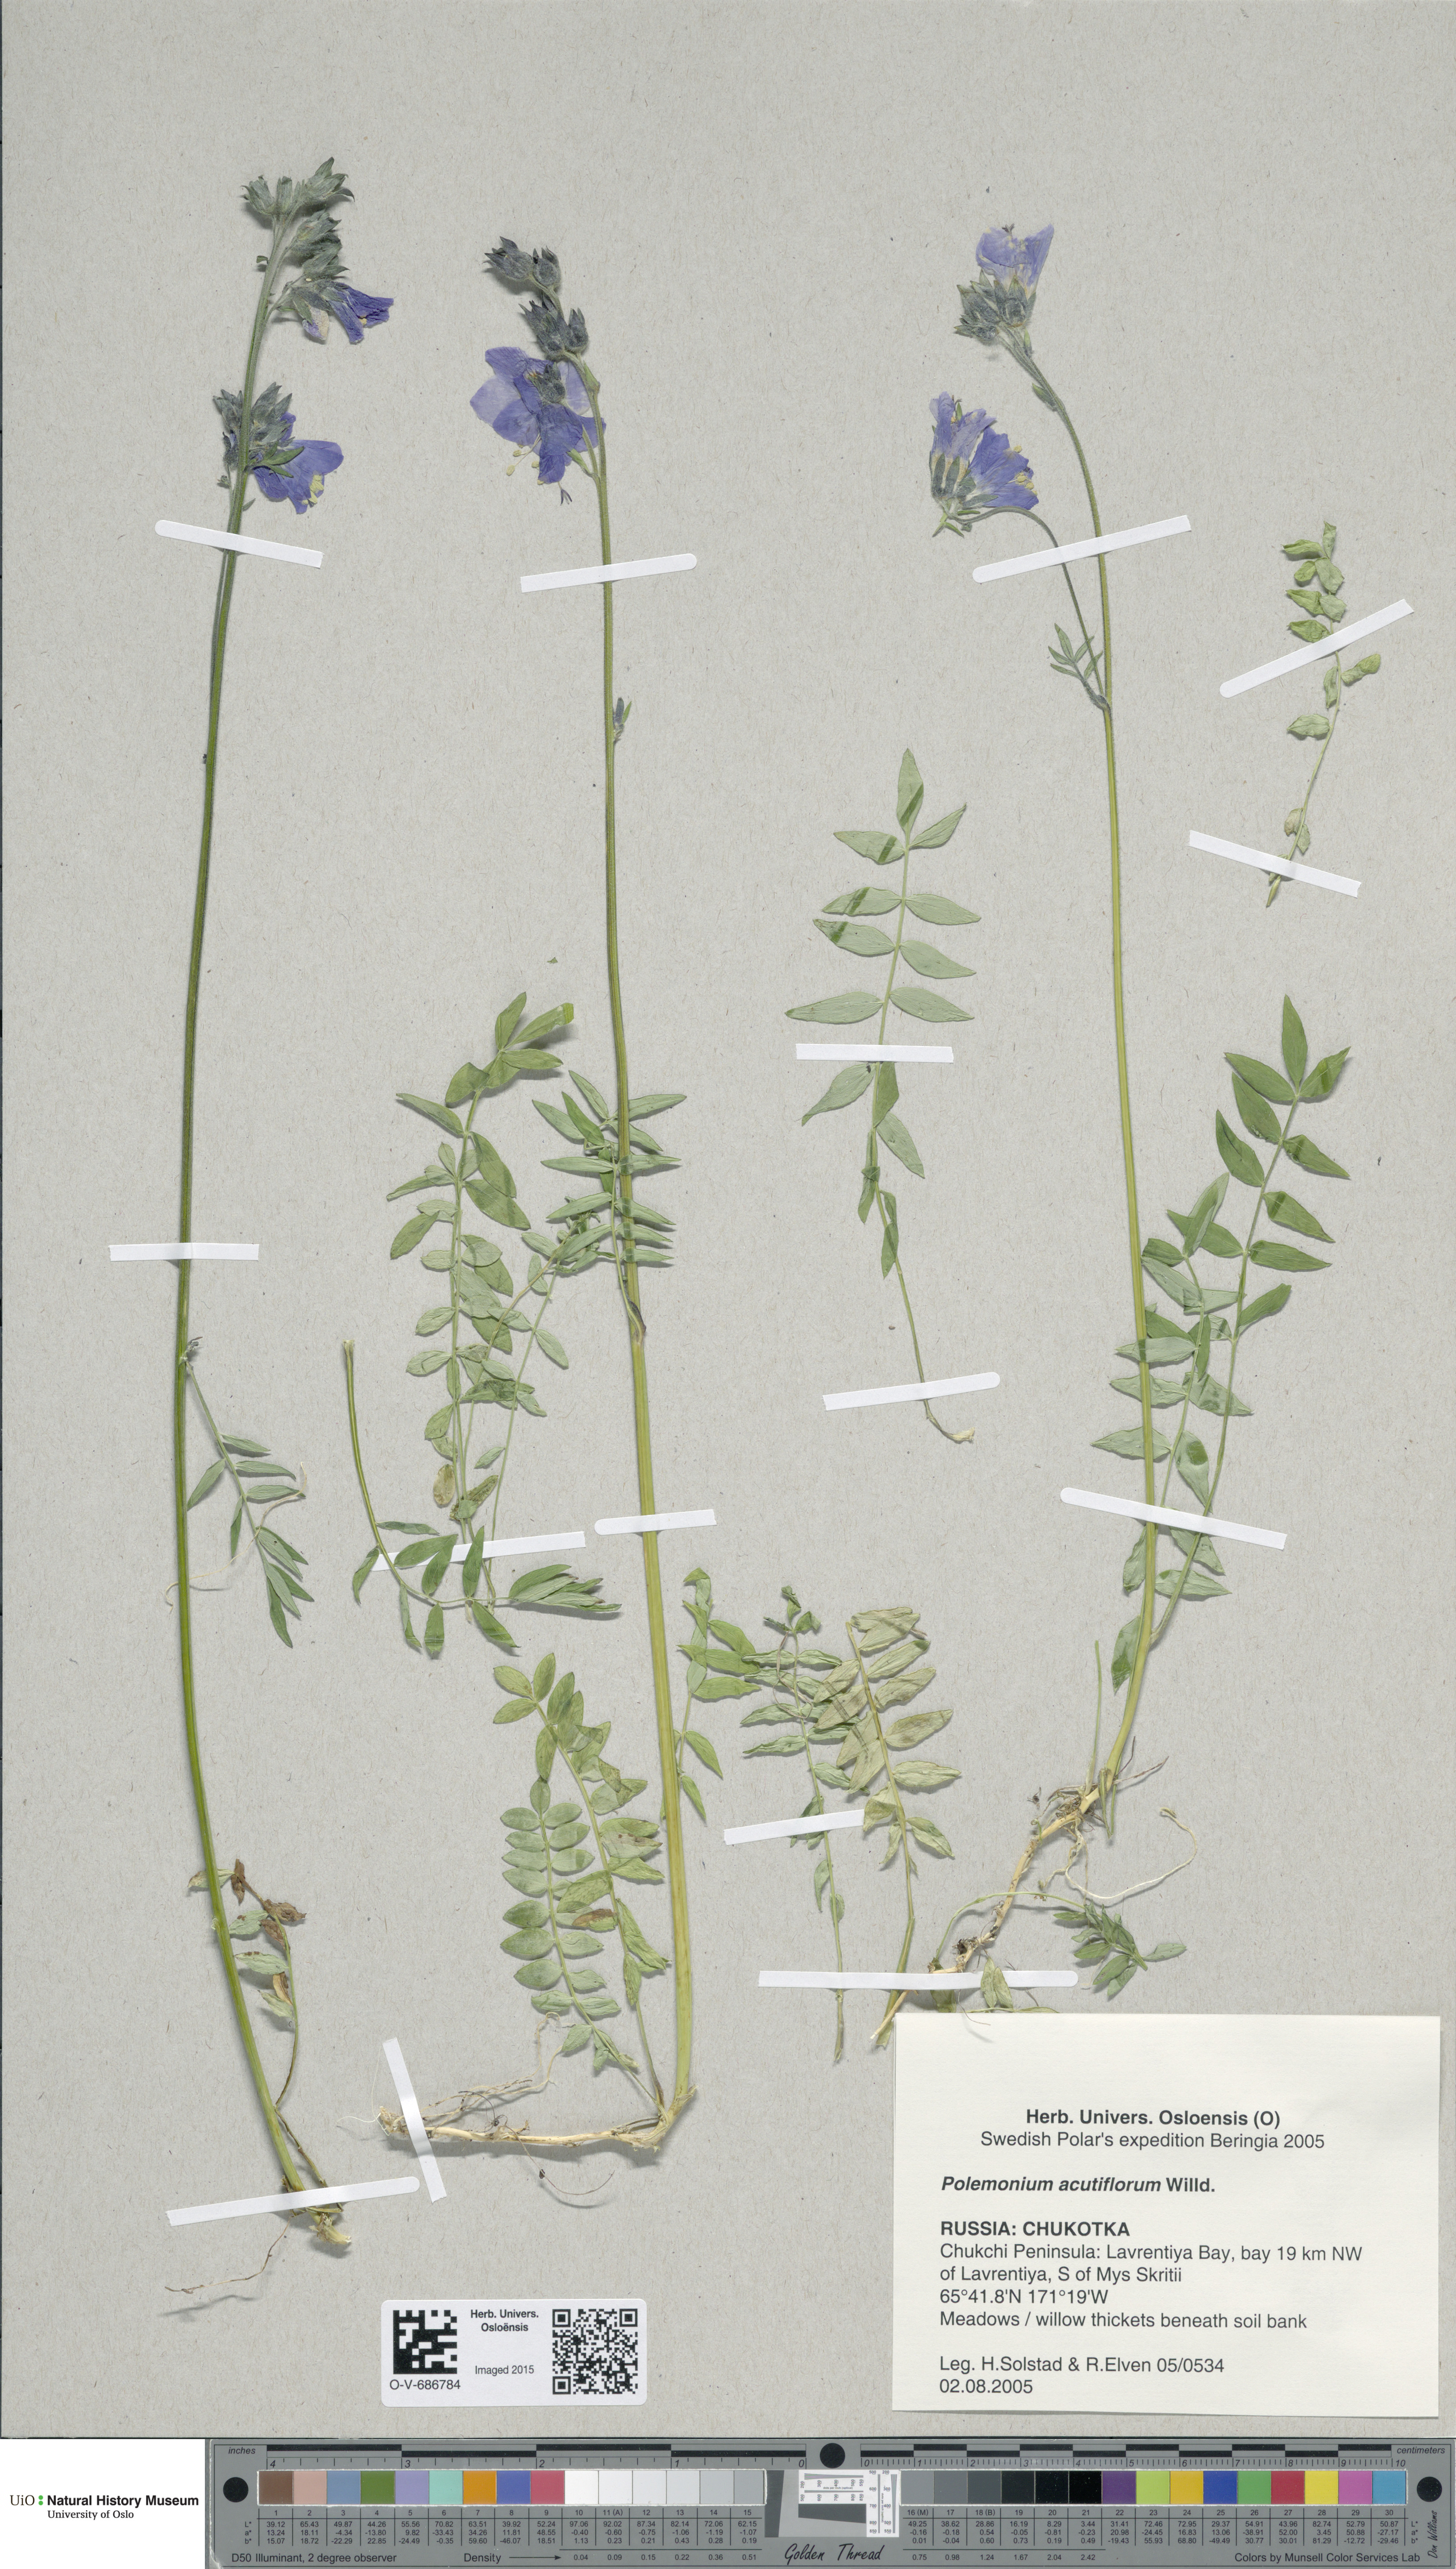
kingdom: Plantae
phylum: Tracheophyta
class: Magnoliopsida
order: Ericales
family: Polemoniaceae
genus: Polemonium
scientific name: Polemonium villosum
